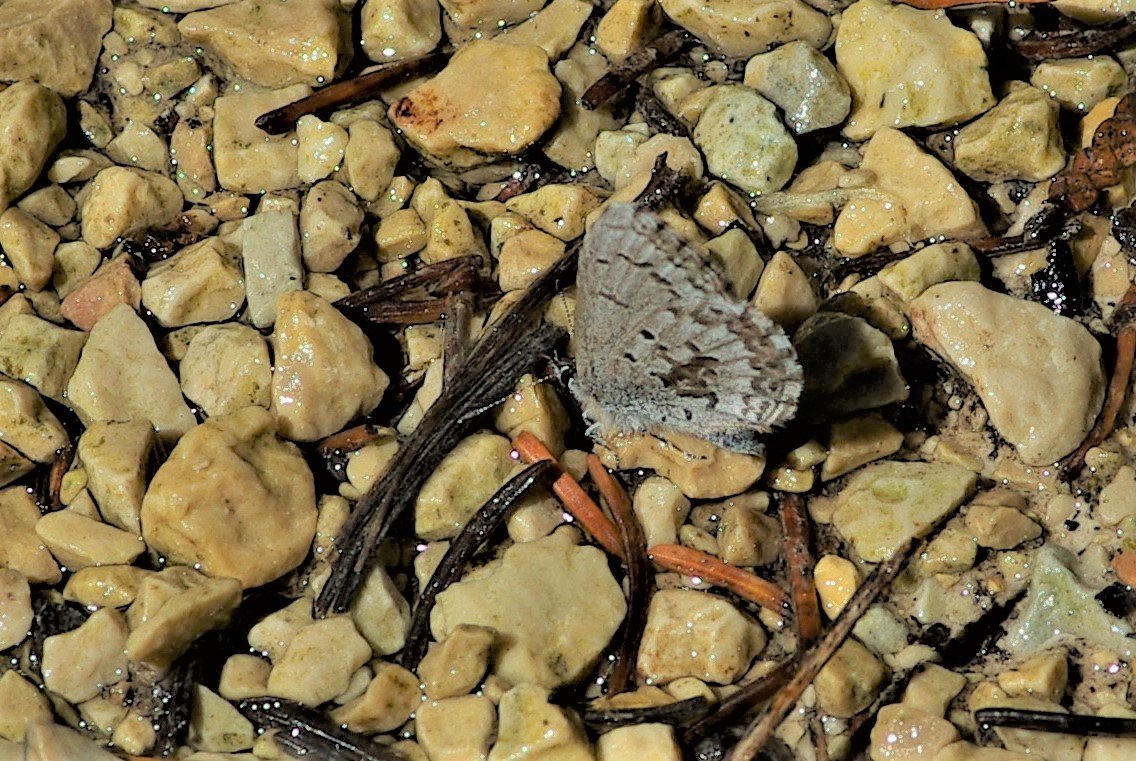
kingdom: Animalia
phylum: Arthropoda
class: Insecta
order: Lepidoptera
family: Lycaenidae
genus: Celastrina
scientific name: Celastrina lucia
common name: Northern Spring Azure
